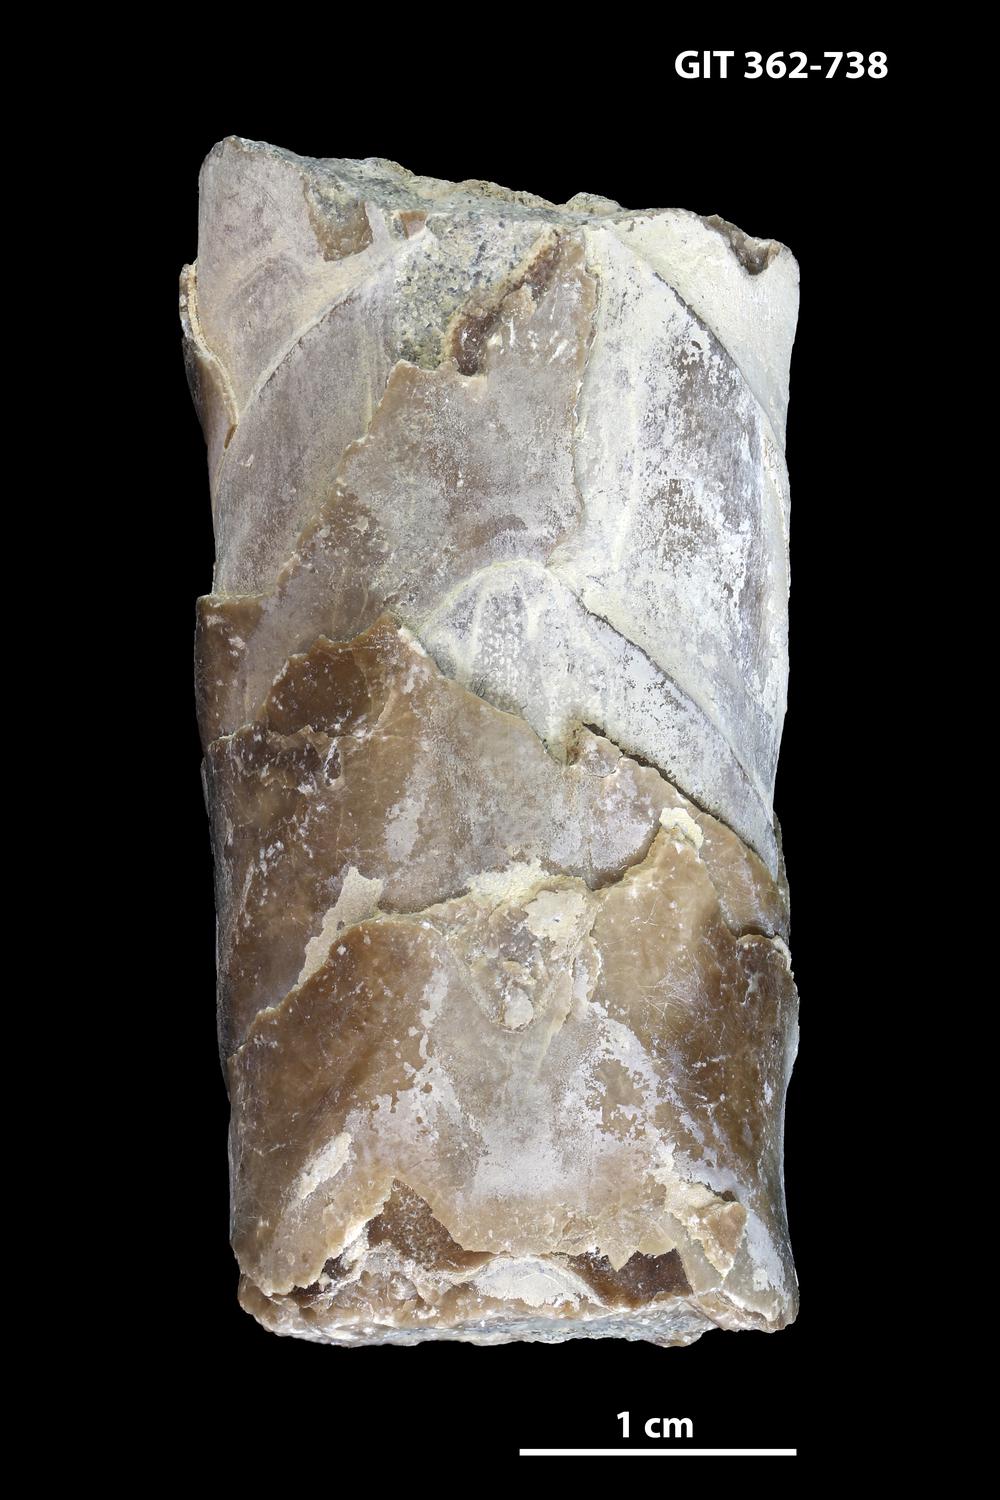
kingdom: Animalia
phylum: Mollusca
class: Cephalopoda
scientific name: Cephalopoda
